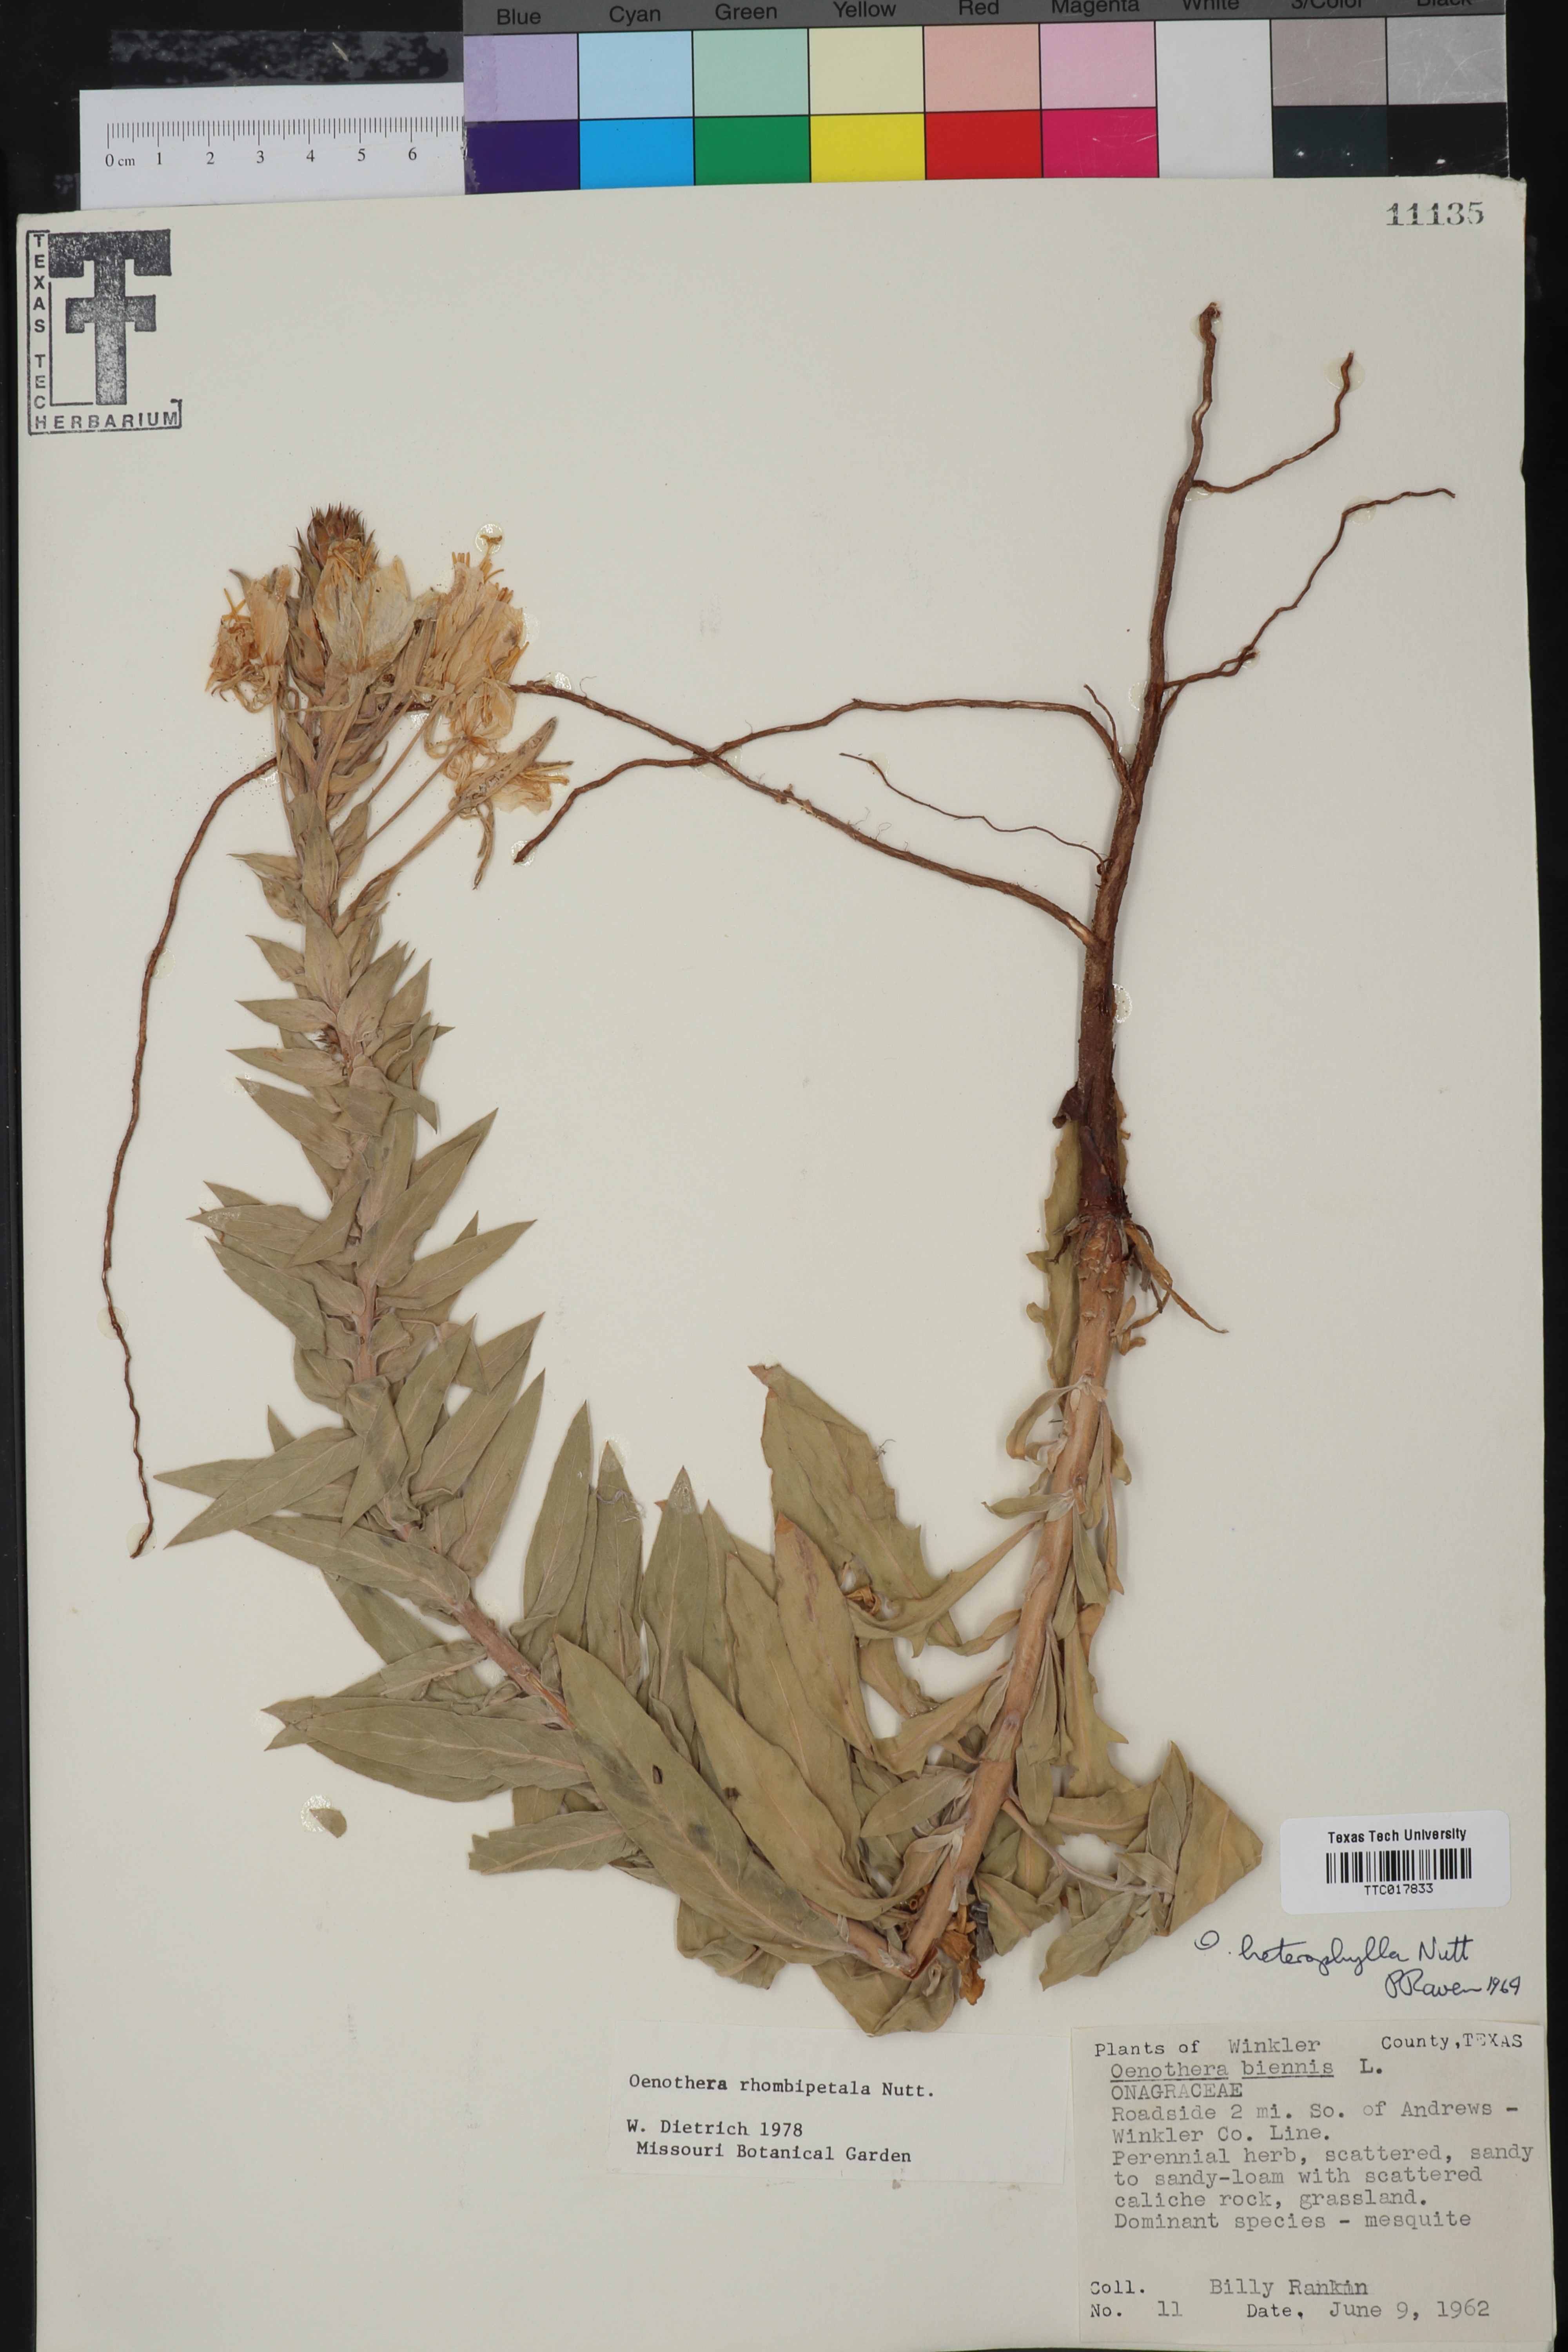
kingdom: Plantae
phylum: Tracheophyta
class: Magnoliopsida
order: Myrtales
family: Onagraceae
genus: Oenothera
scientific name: Oenothera rhombipetala
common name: Four-points evening-primrose
